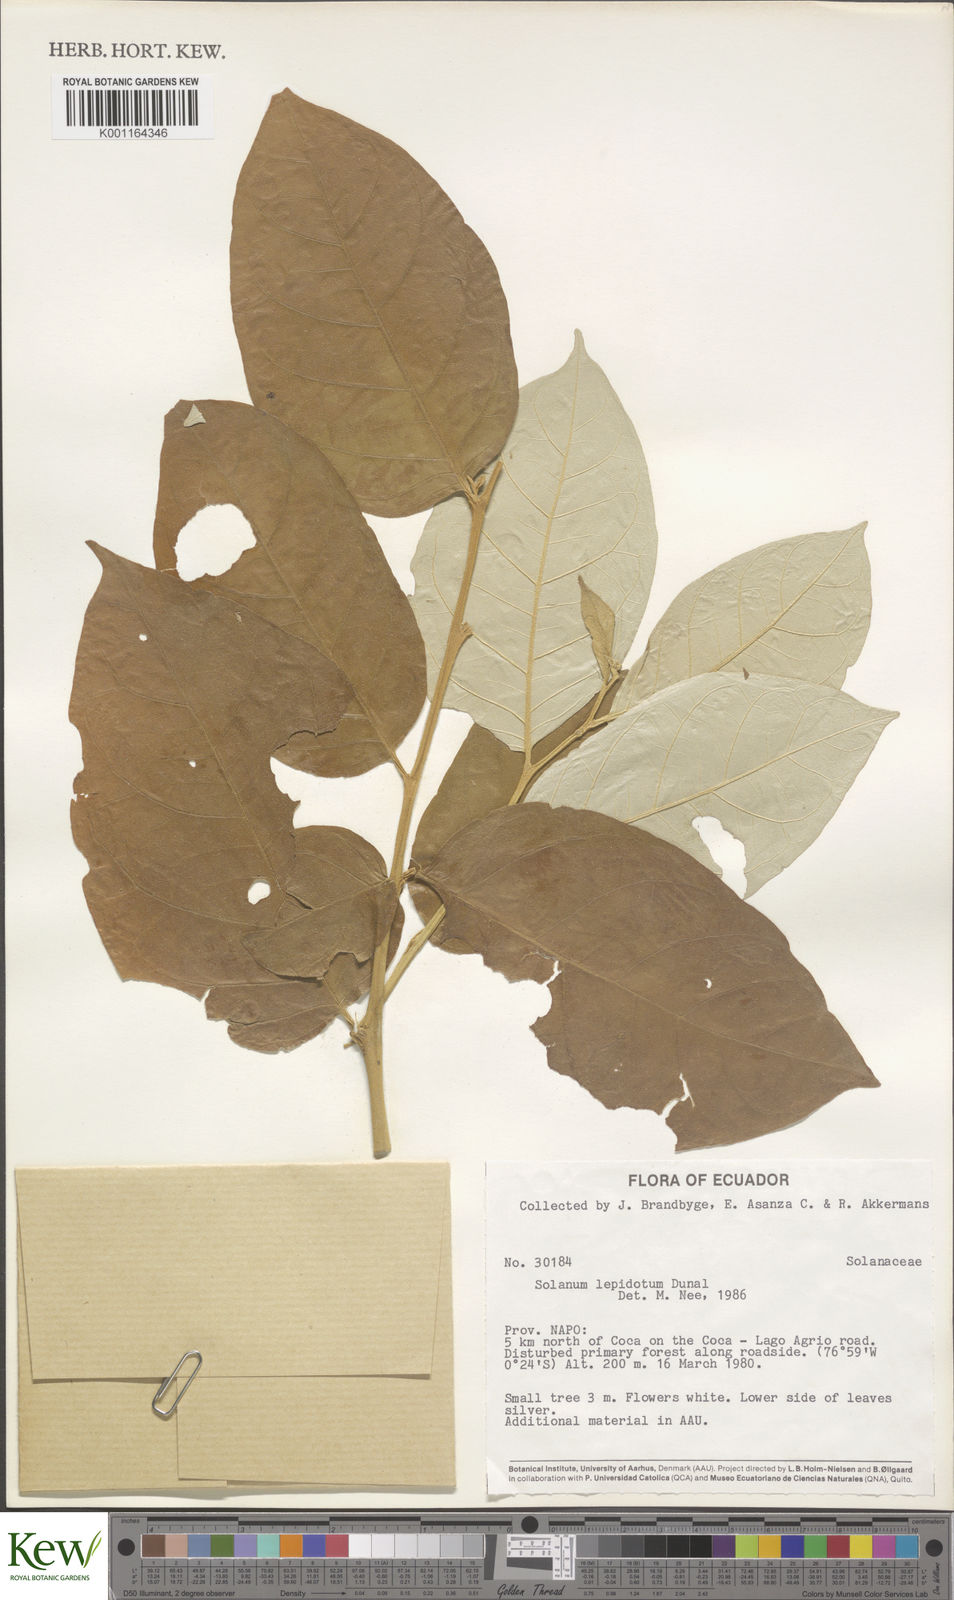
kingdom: Plantae
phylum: Tracheophyta
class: Magnoliopsida
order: Solanales
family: Solanaceae
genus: Solanum
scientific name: Solanum lepidotum
